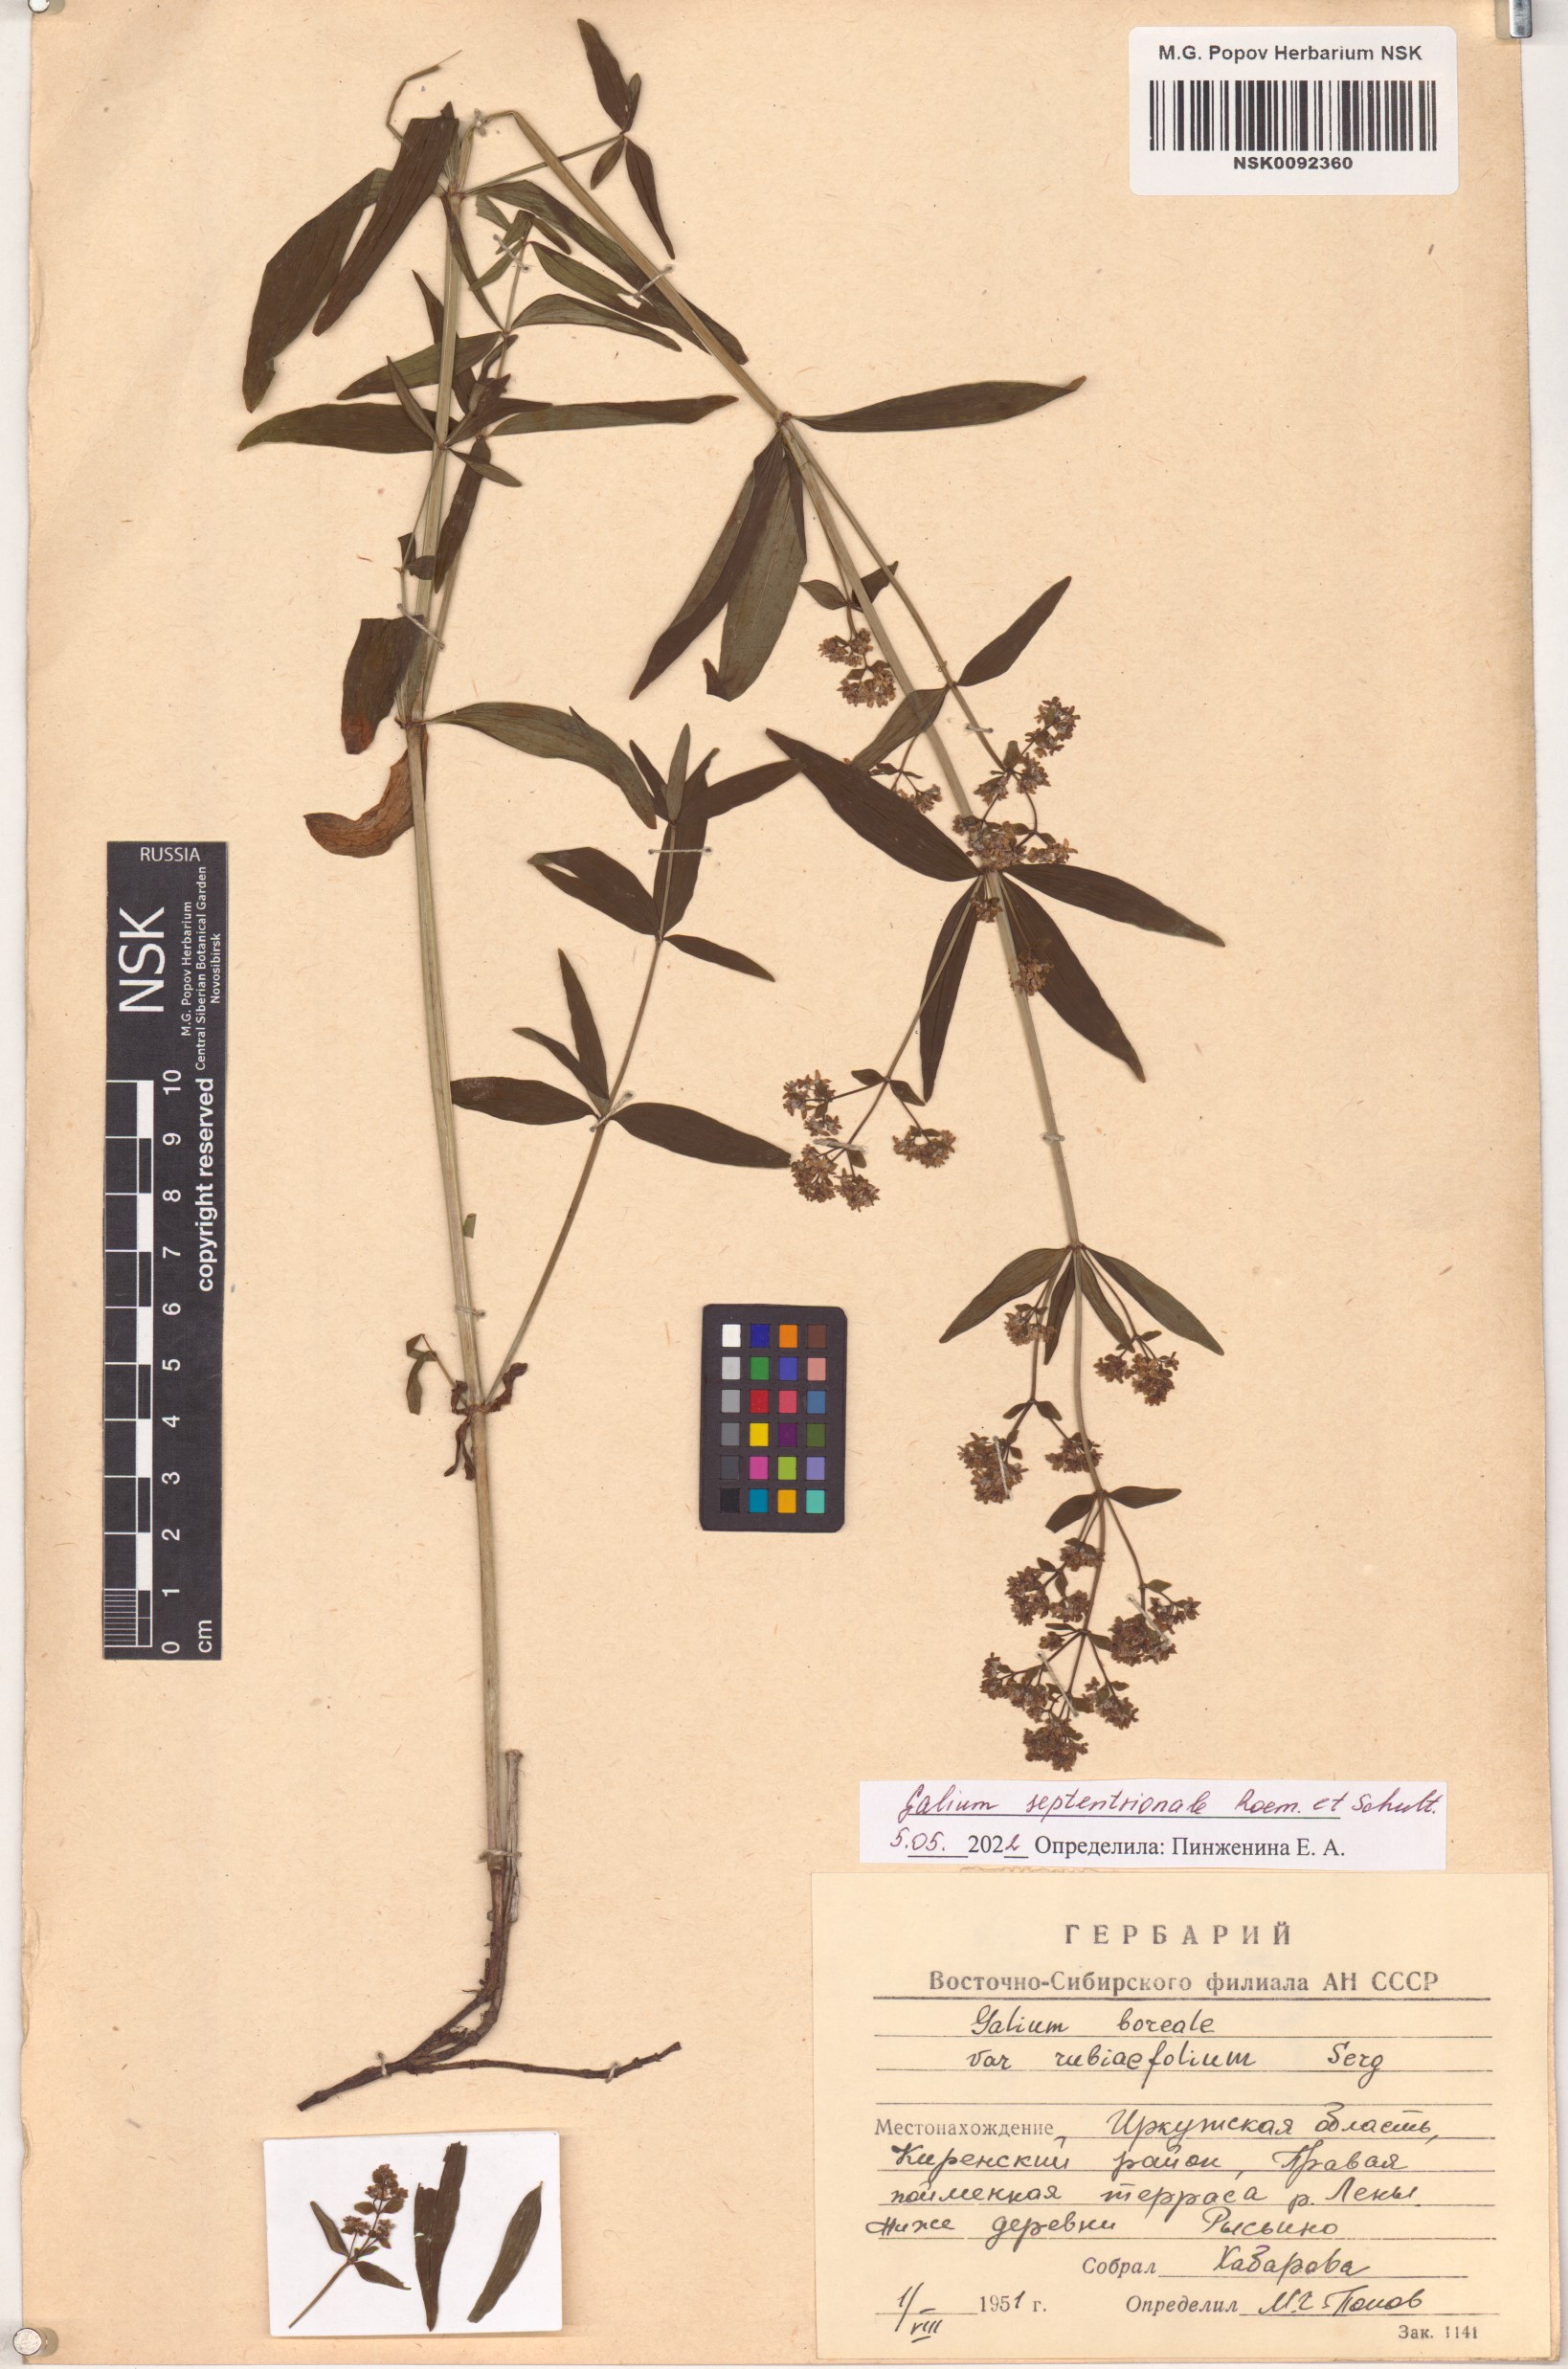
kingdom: Plantae
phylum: Tracheophyta
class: Magnoliopsida
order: Gentianales
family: Rubiaceae
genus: Galium
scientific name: Galium boreale
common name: Northern bedstraw
